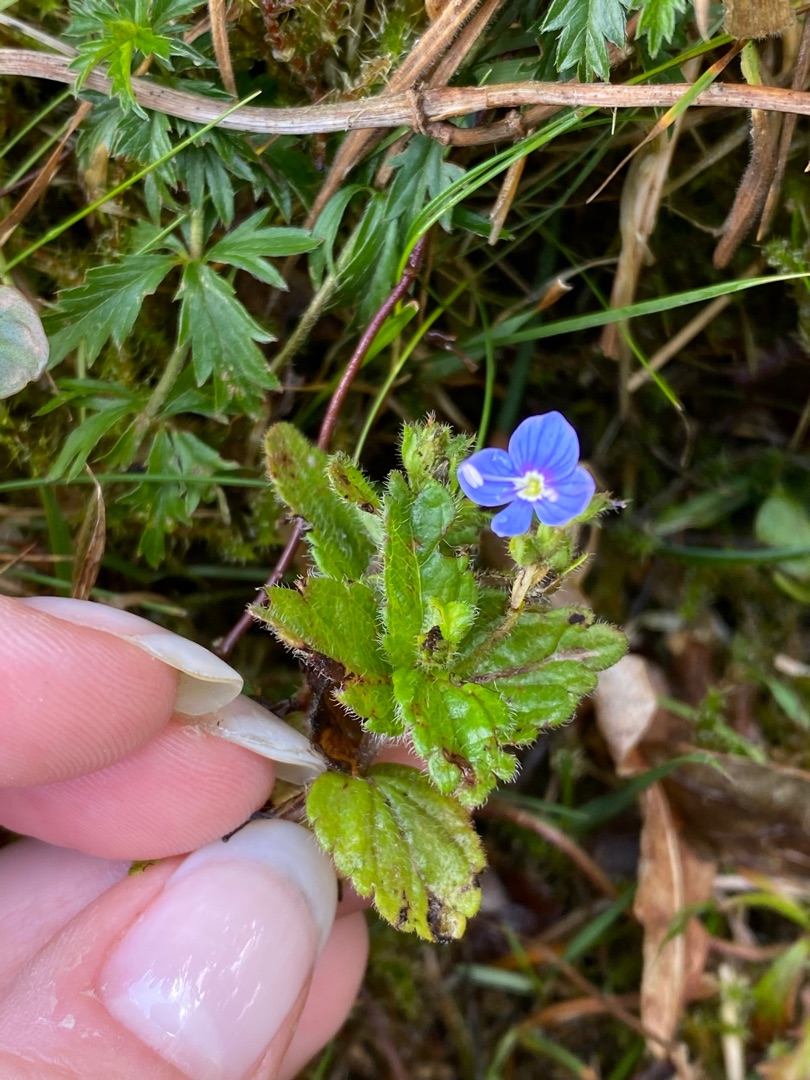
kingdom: Plantae
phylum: Tracheophyta
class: Magnoliopsida
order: Lamiales
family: Plantaginaceae
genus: Veronica
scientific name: Veronica chamaedrys
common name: Tveskægget ærenpris
